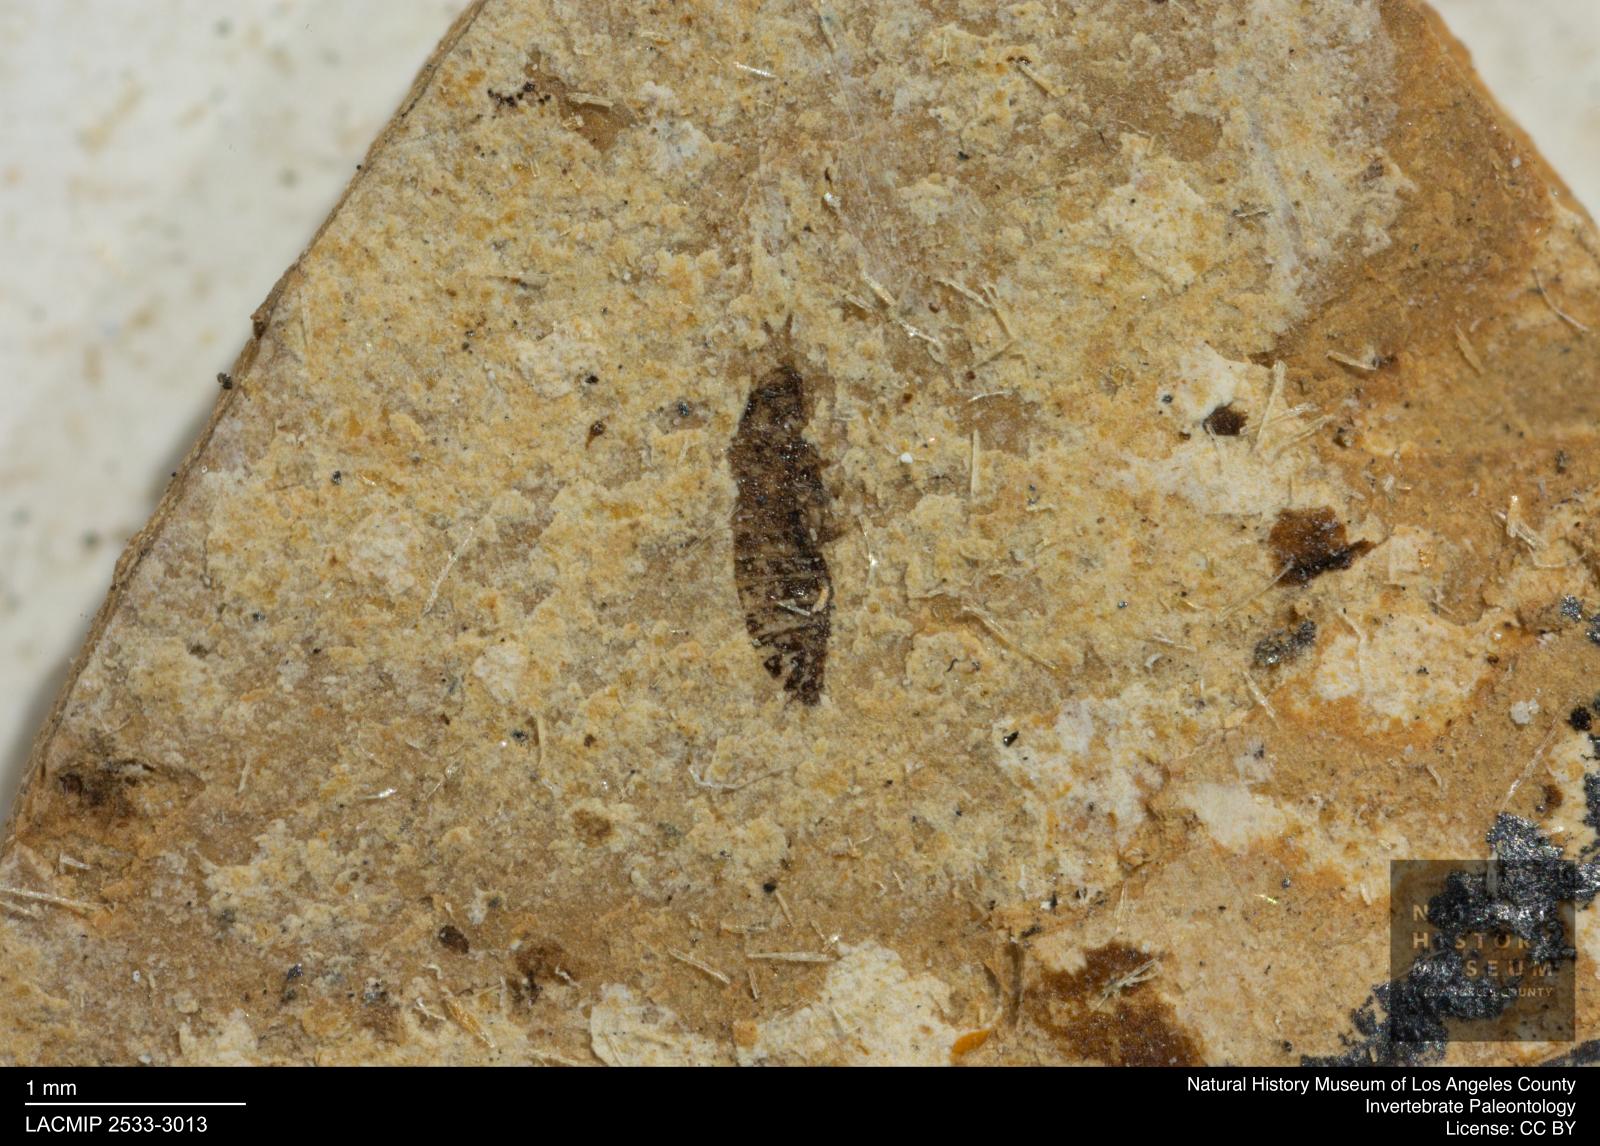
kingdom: Animalia
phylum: Arthropoda
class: Insecta
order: Thysanoptera
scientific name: Thysanoptera
